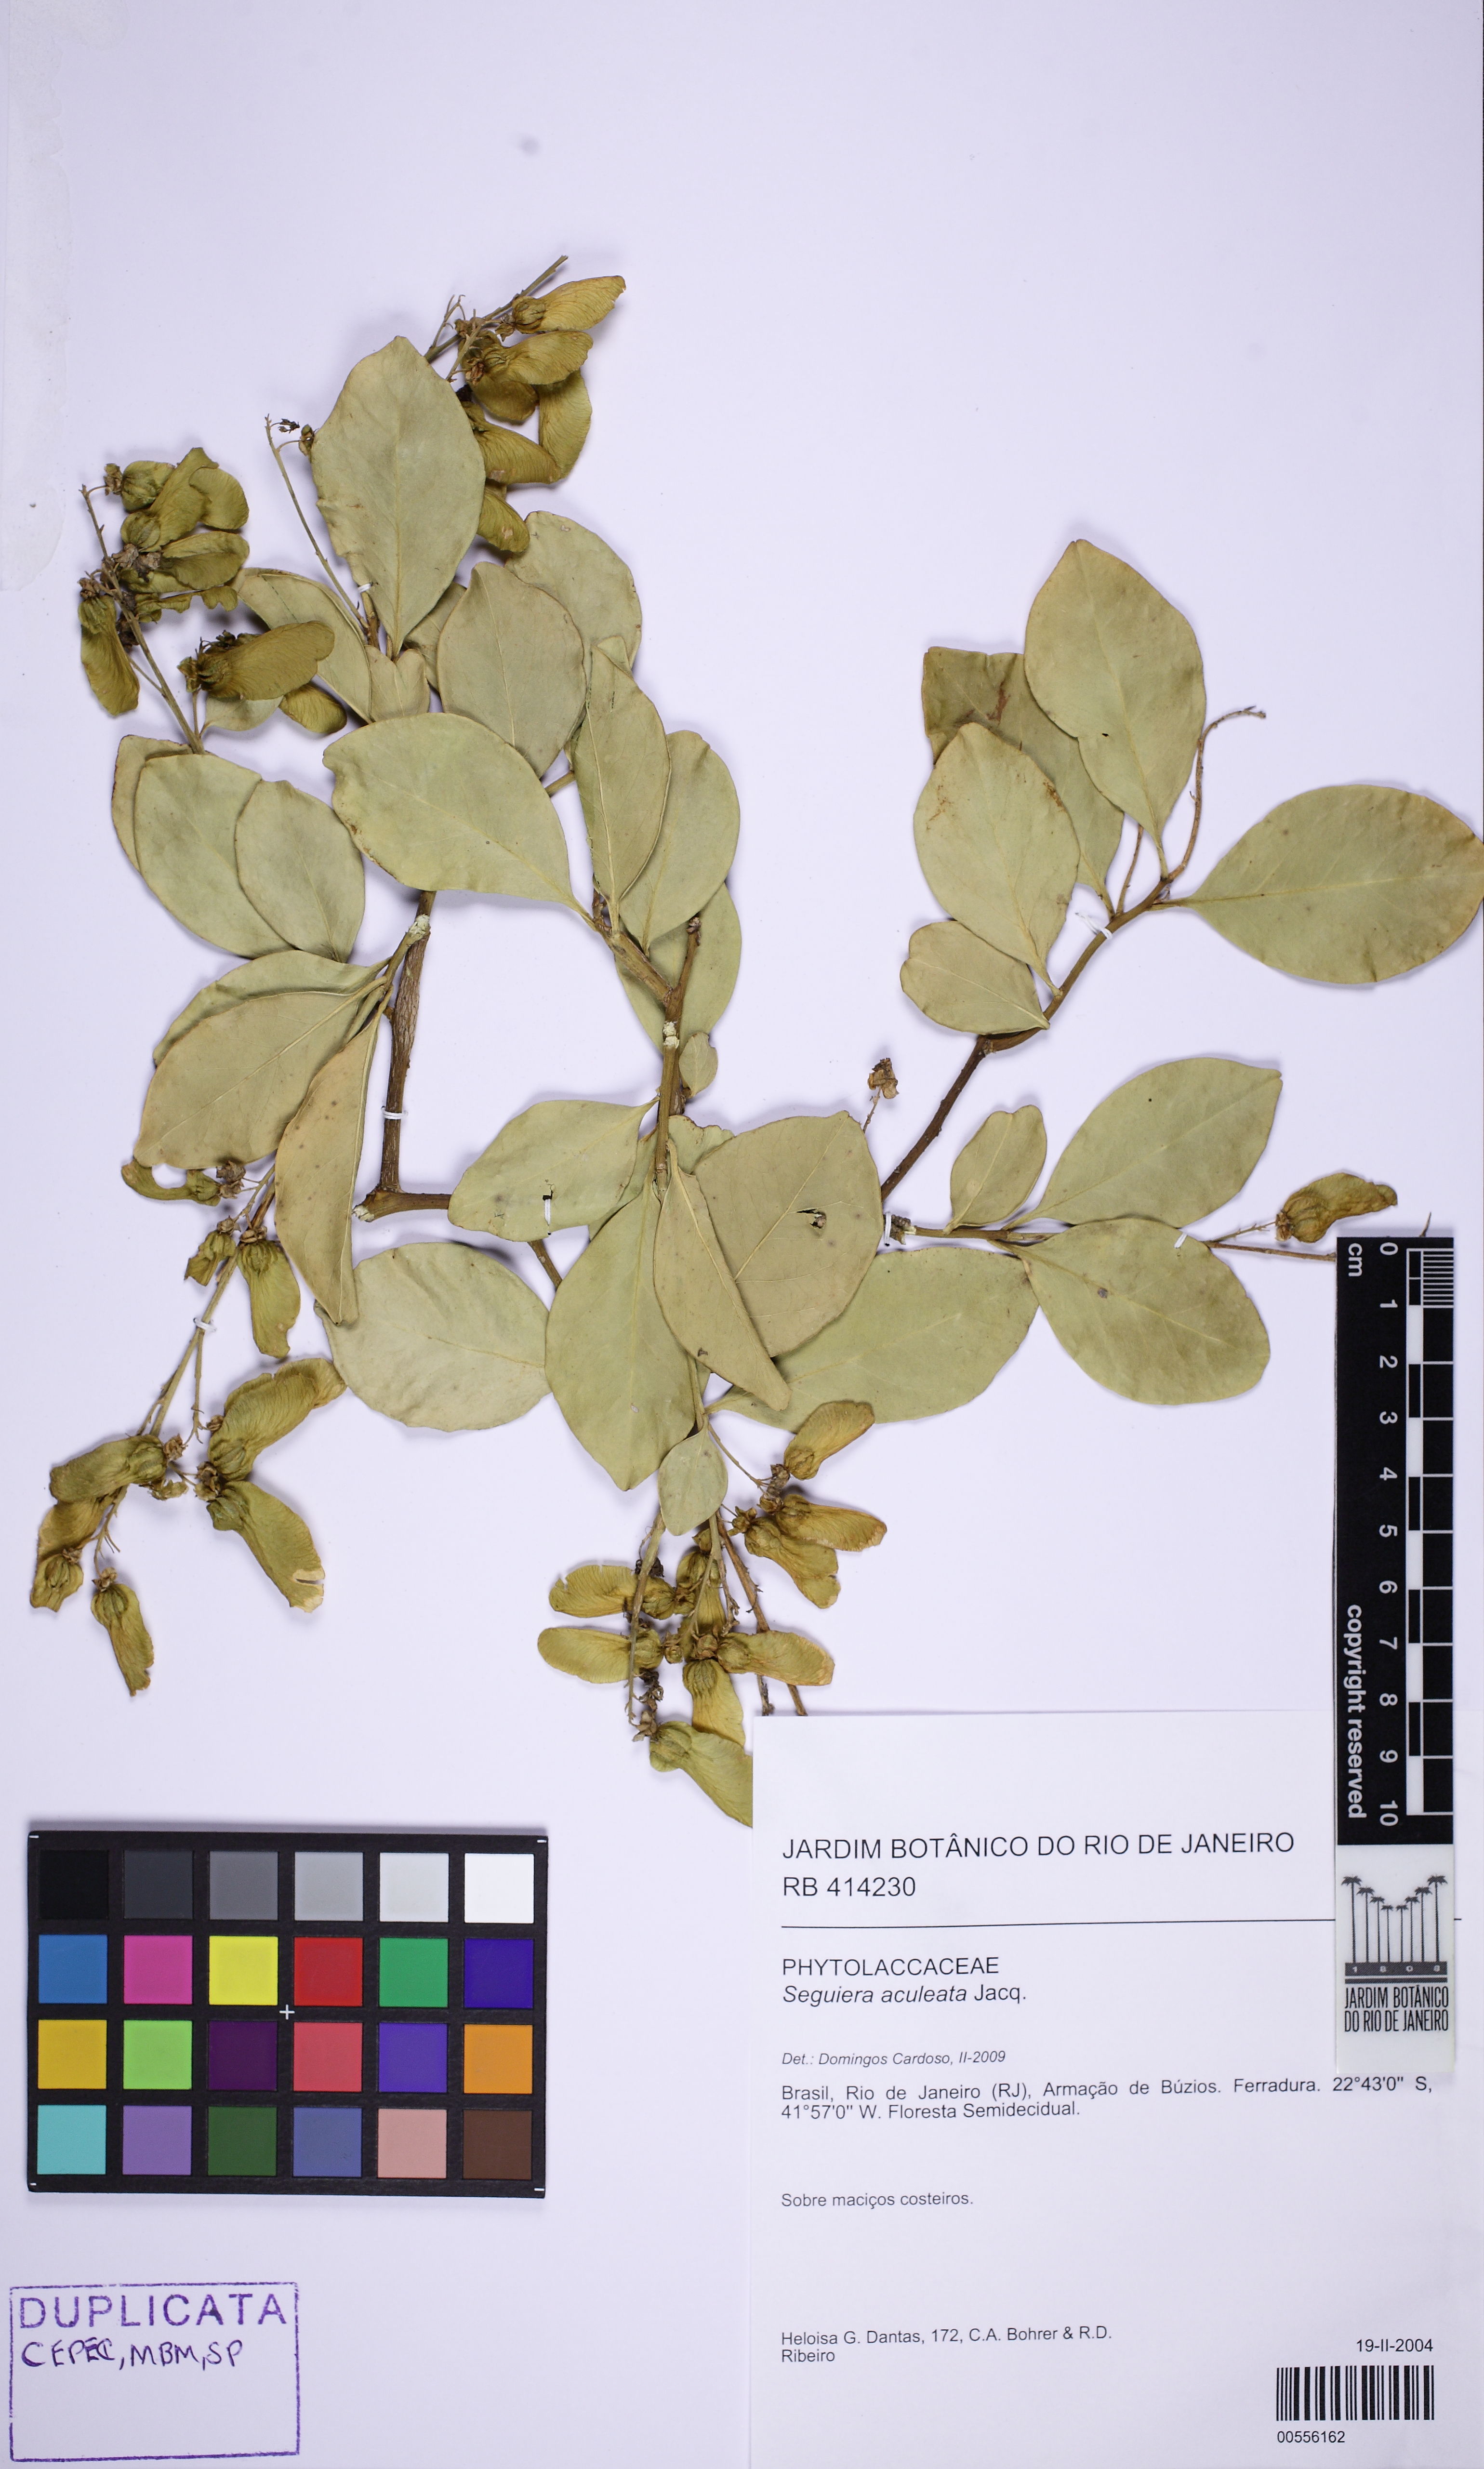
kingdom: Plantae
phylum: Tracheophyta
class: Magnoliopsida
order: Caryophyllales
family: Phytolaccaceae
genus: Seguieria
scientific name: Seguieria aculeata
